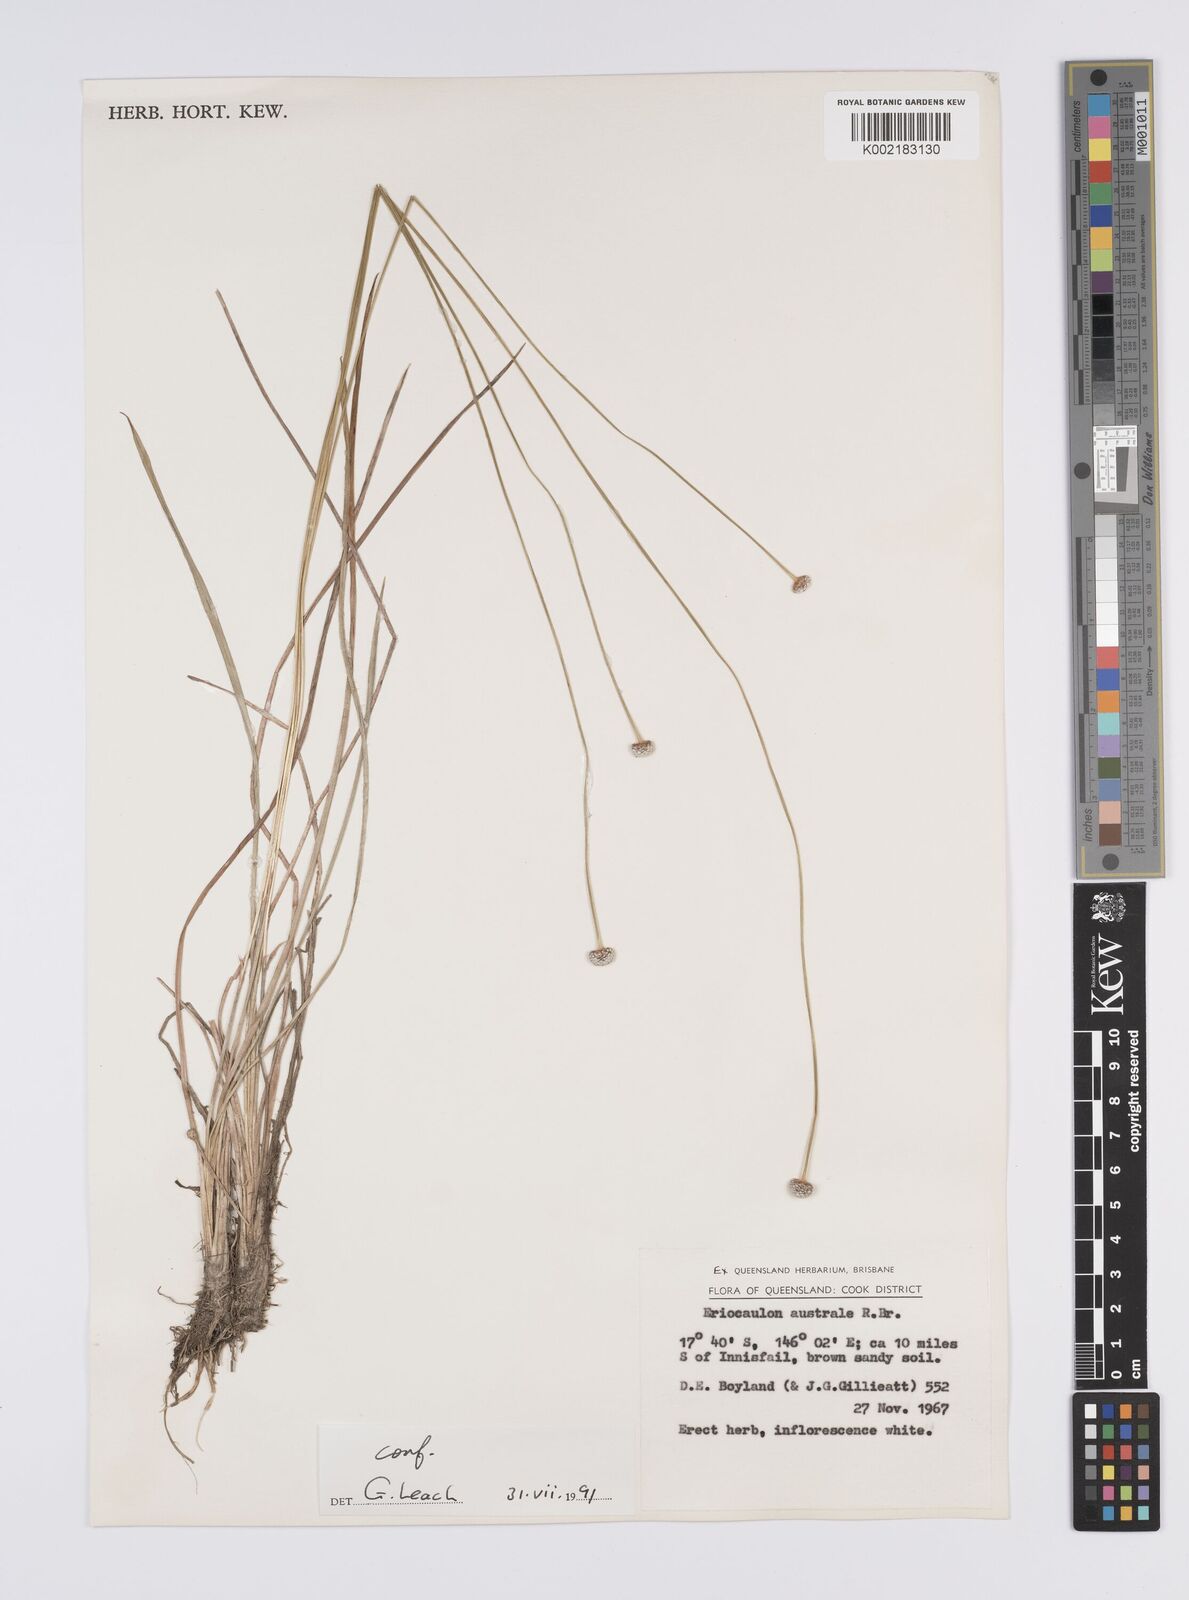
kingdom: Plantae
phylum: Tracheophyta
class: Liliopsida
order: Poales
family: Eriocaulaceae
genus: Eriocaulon
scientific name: Eriocaulon australe
